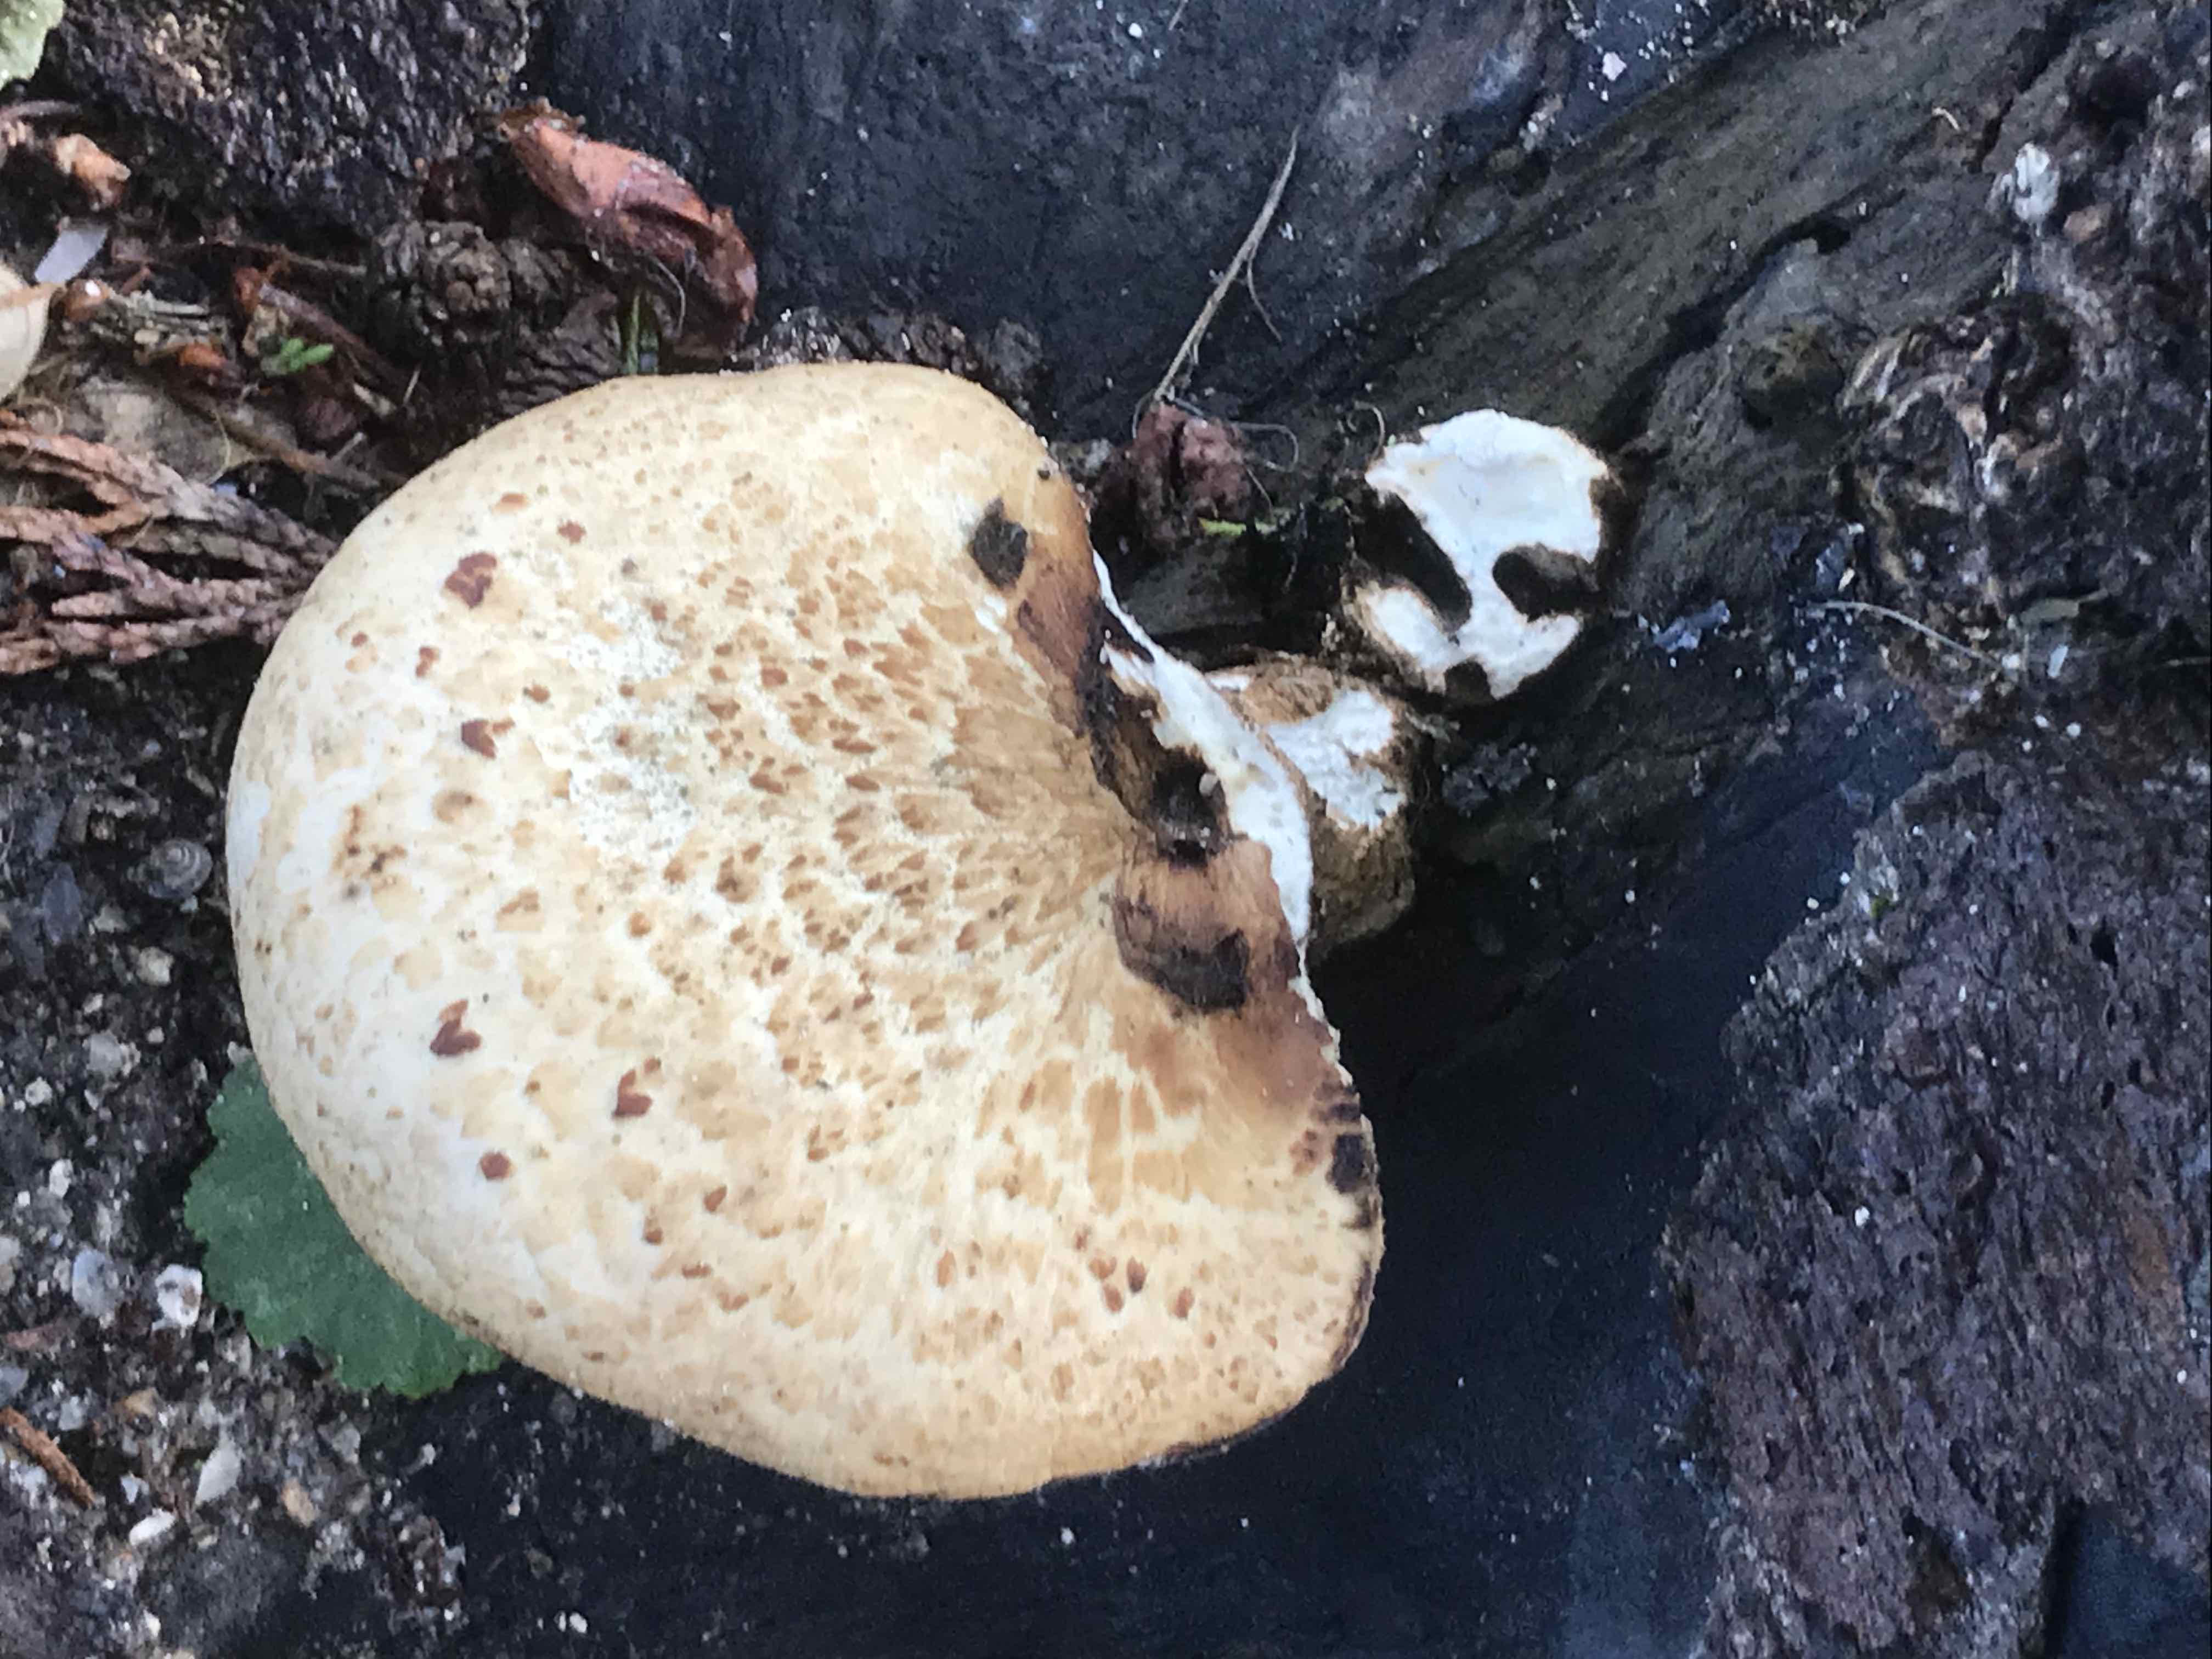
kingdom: Fungi
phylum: Basidiomycota
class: Agaricomycetes
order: Polyporales
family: Polyporaceae
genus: Cerioporus
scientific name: Cerioporus squamosus
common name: skællet stilkporesvamp
